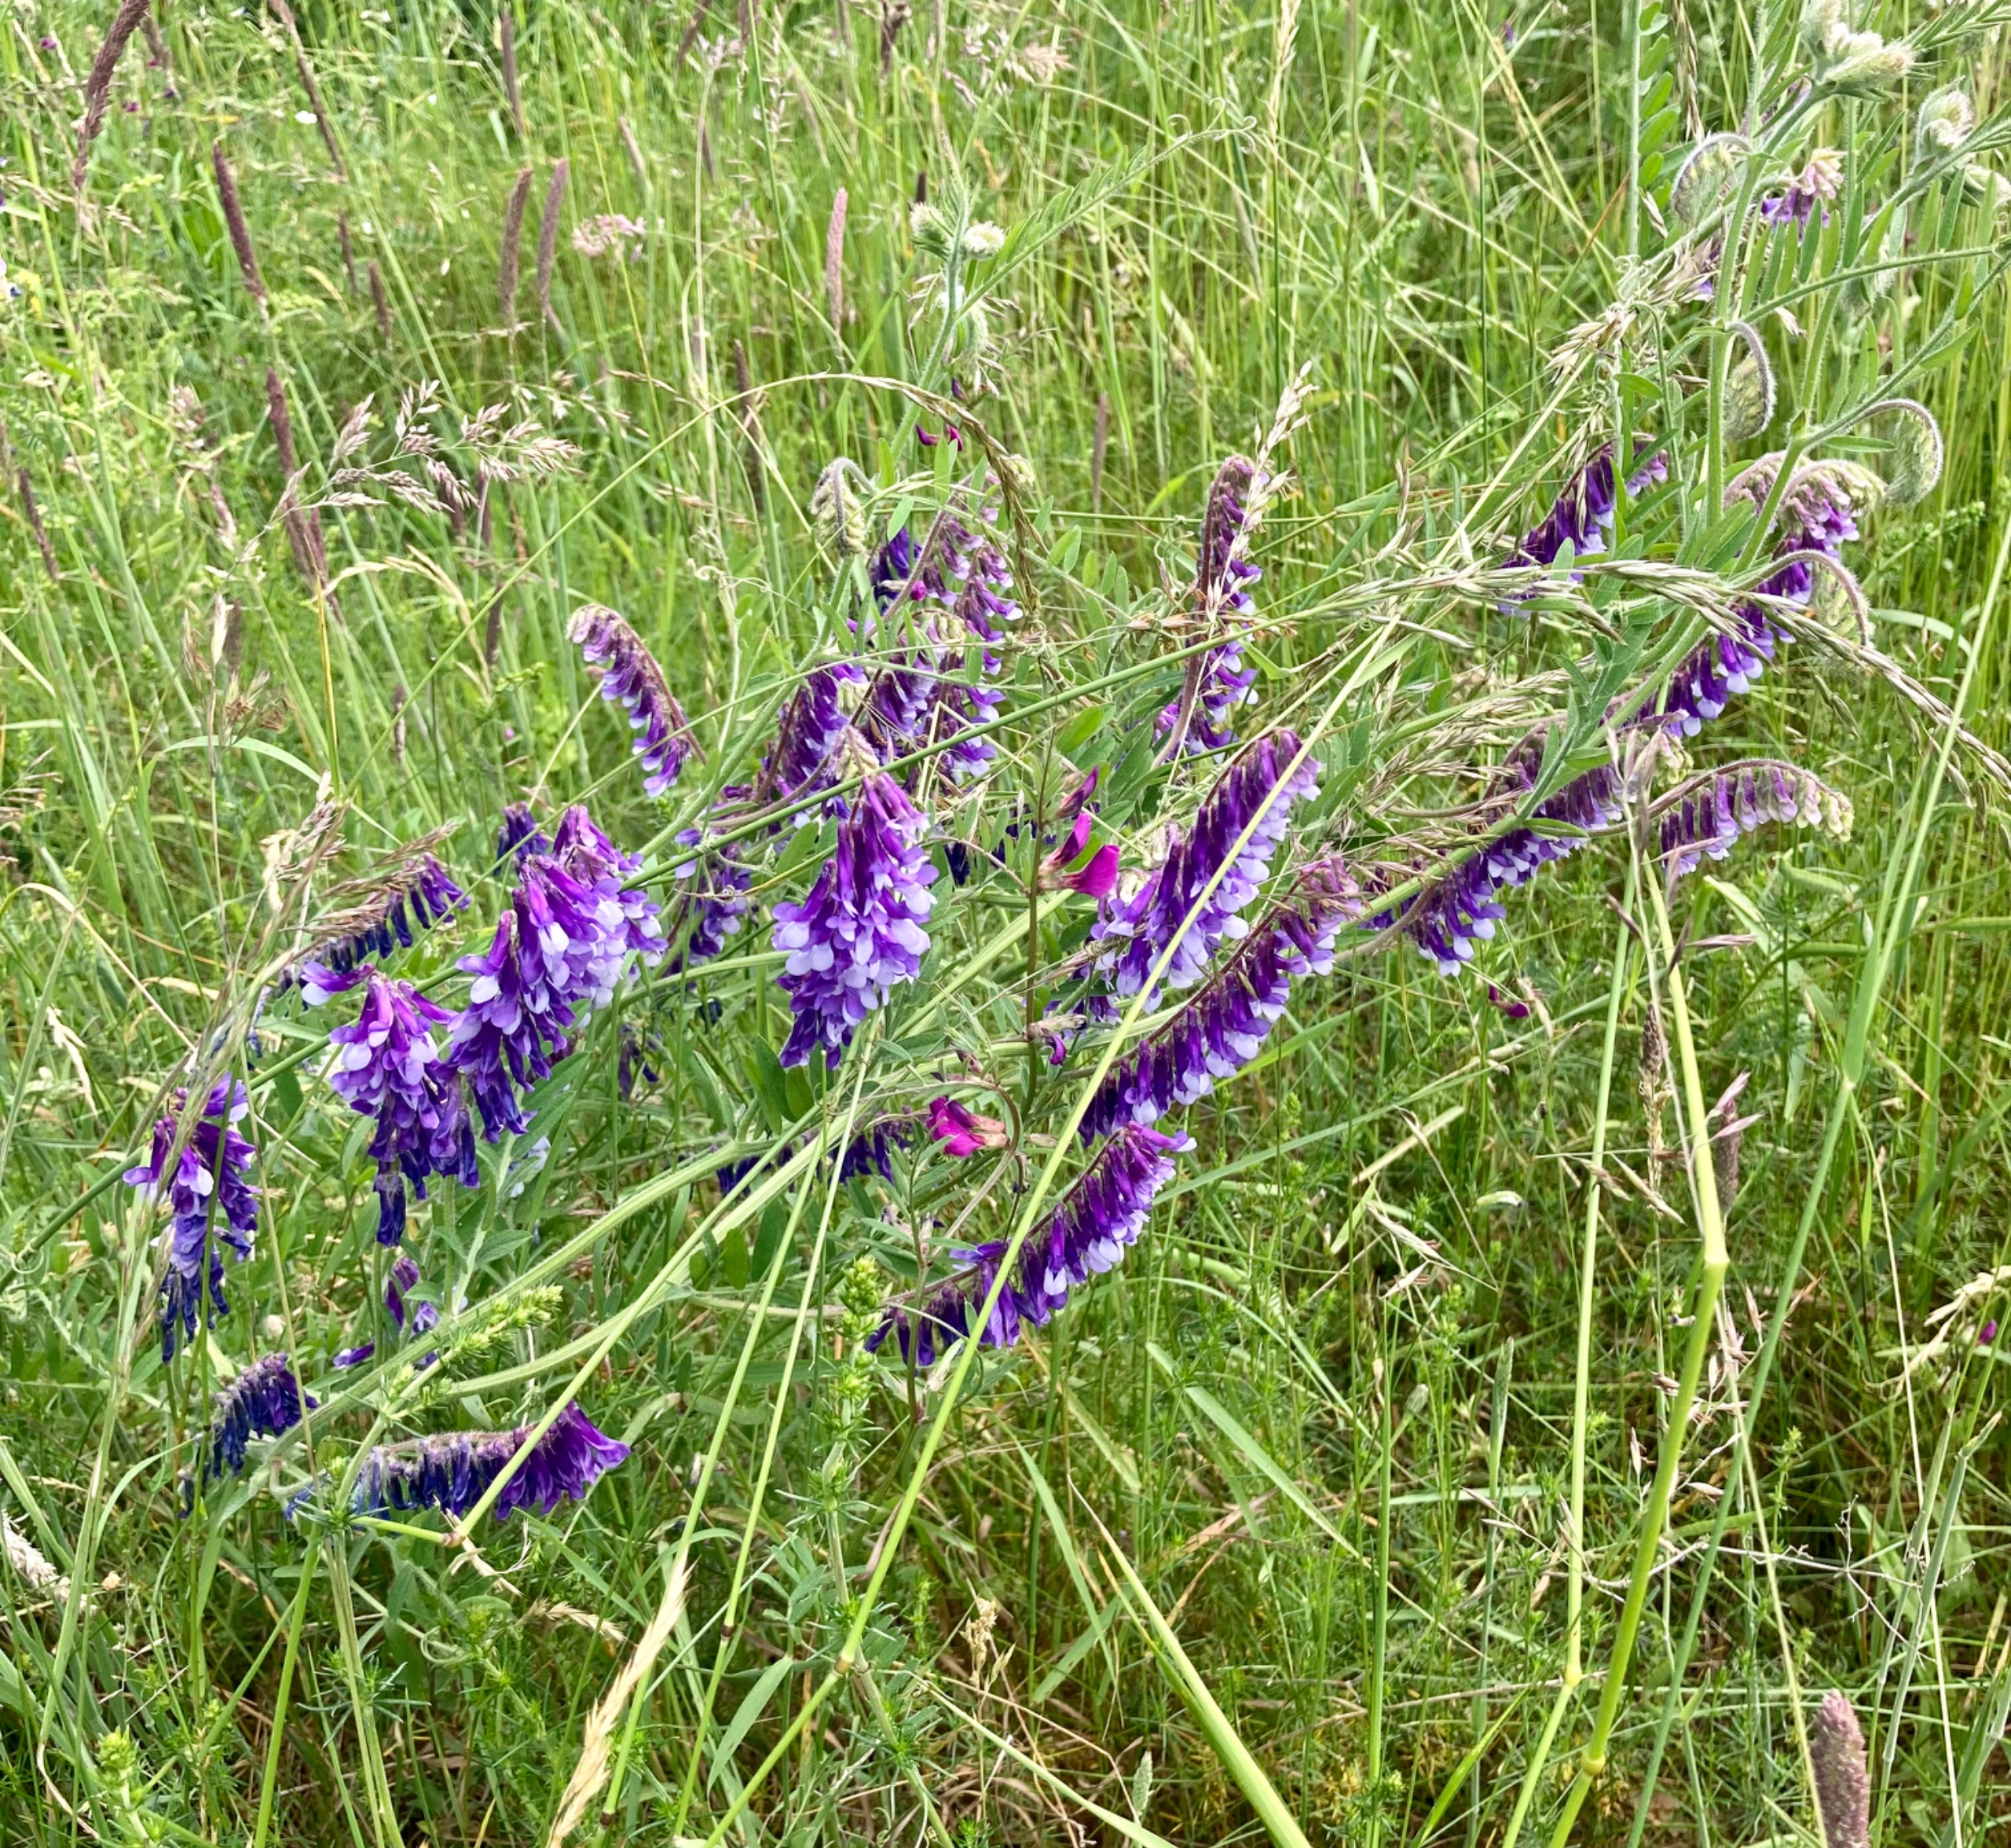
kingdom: Plantae
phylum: Tracheophyta
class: Magnoliopsida
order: Fabales
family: Fabaceae
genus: Vicia
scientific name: Vicia tenuifolia
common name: Langklaset vikke
